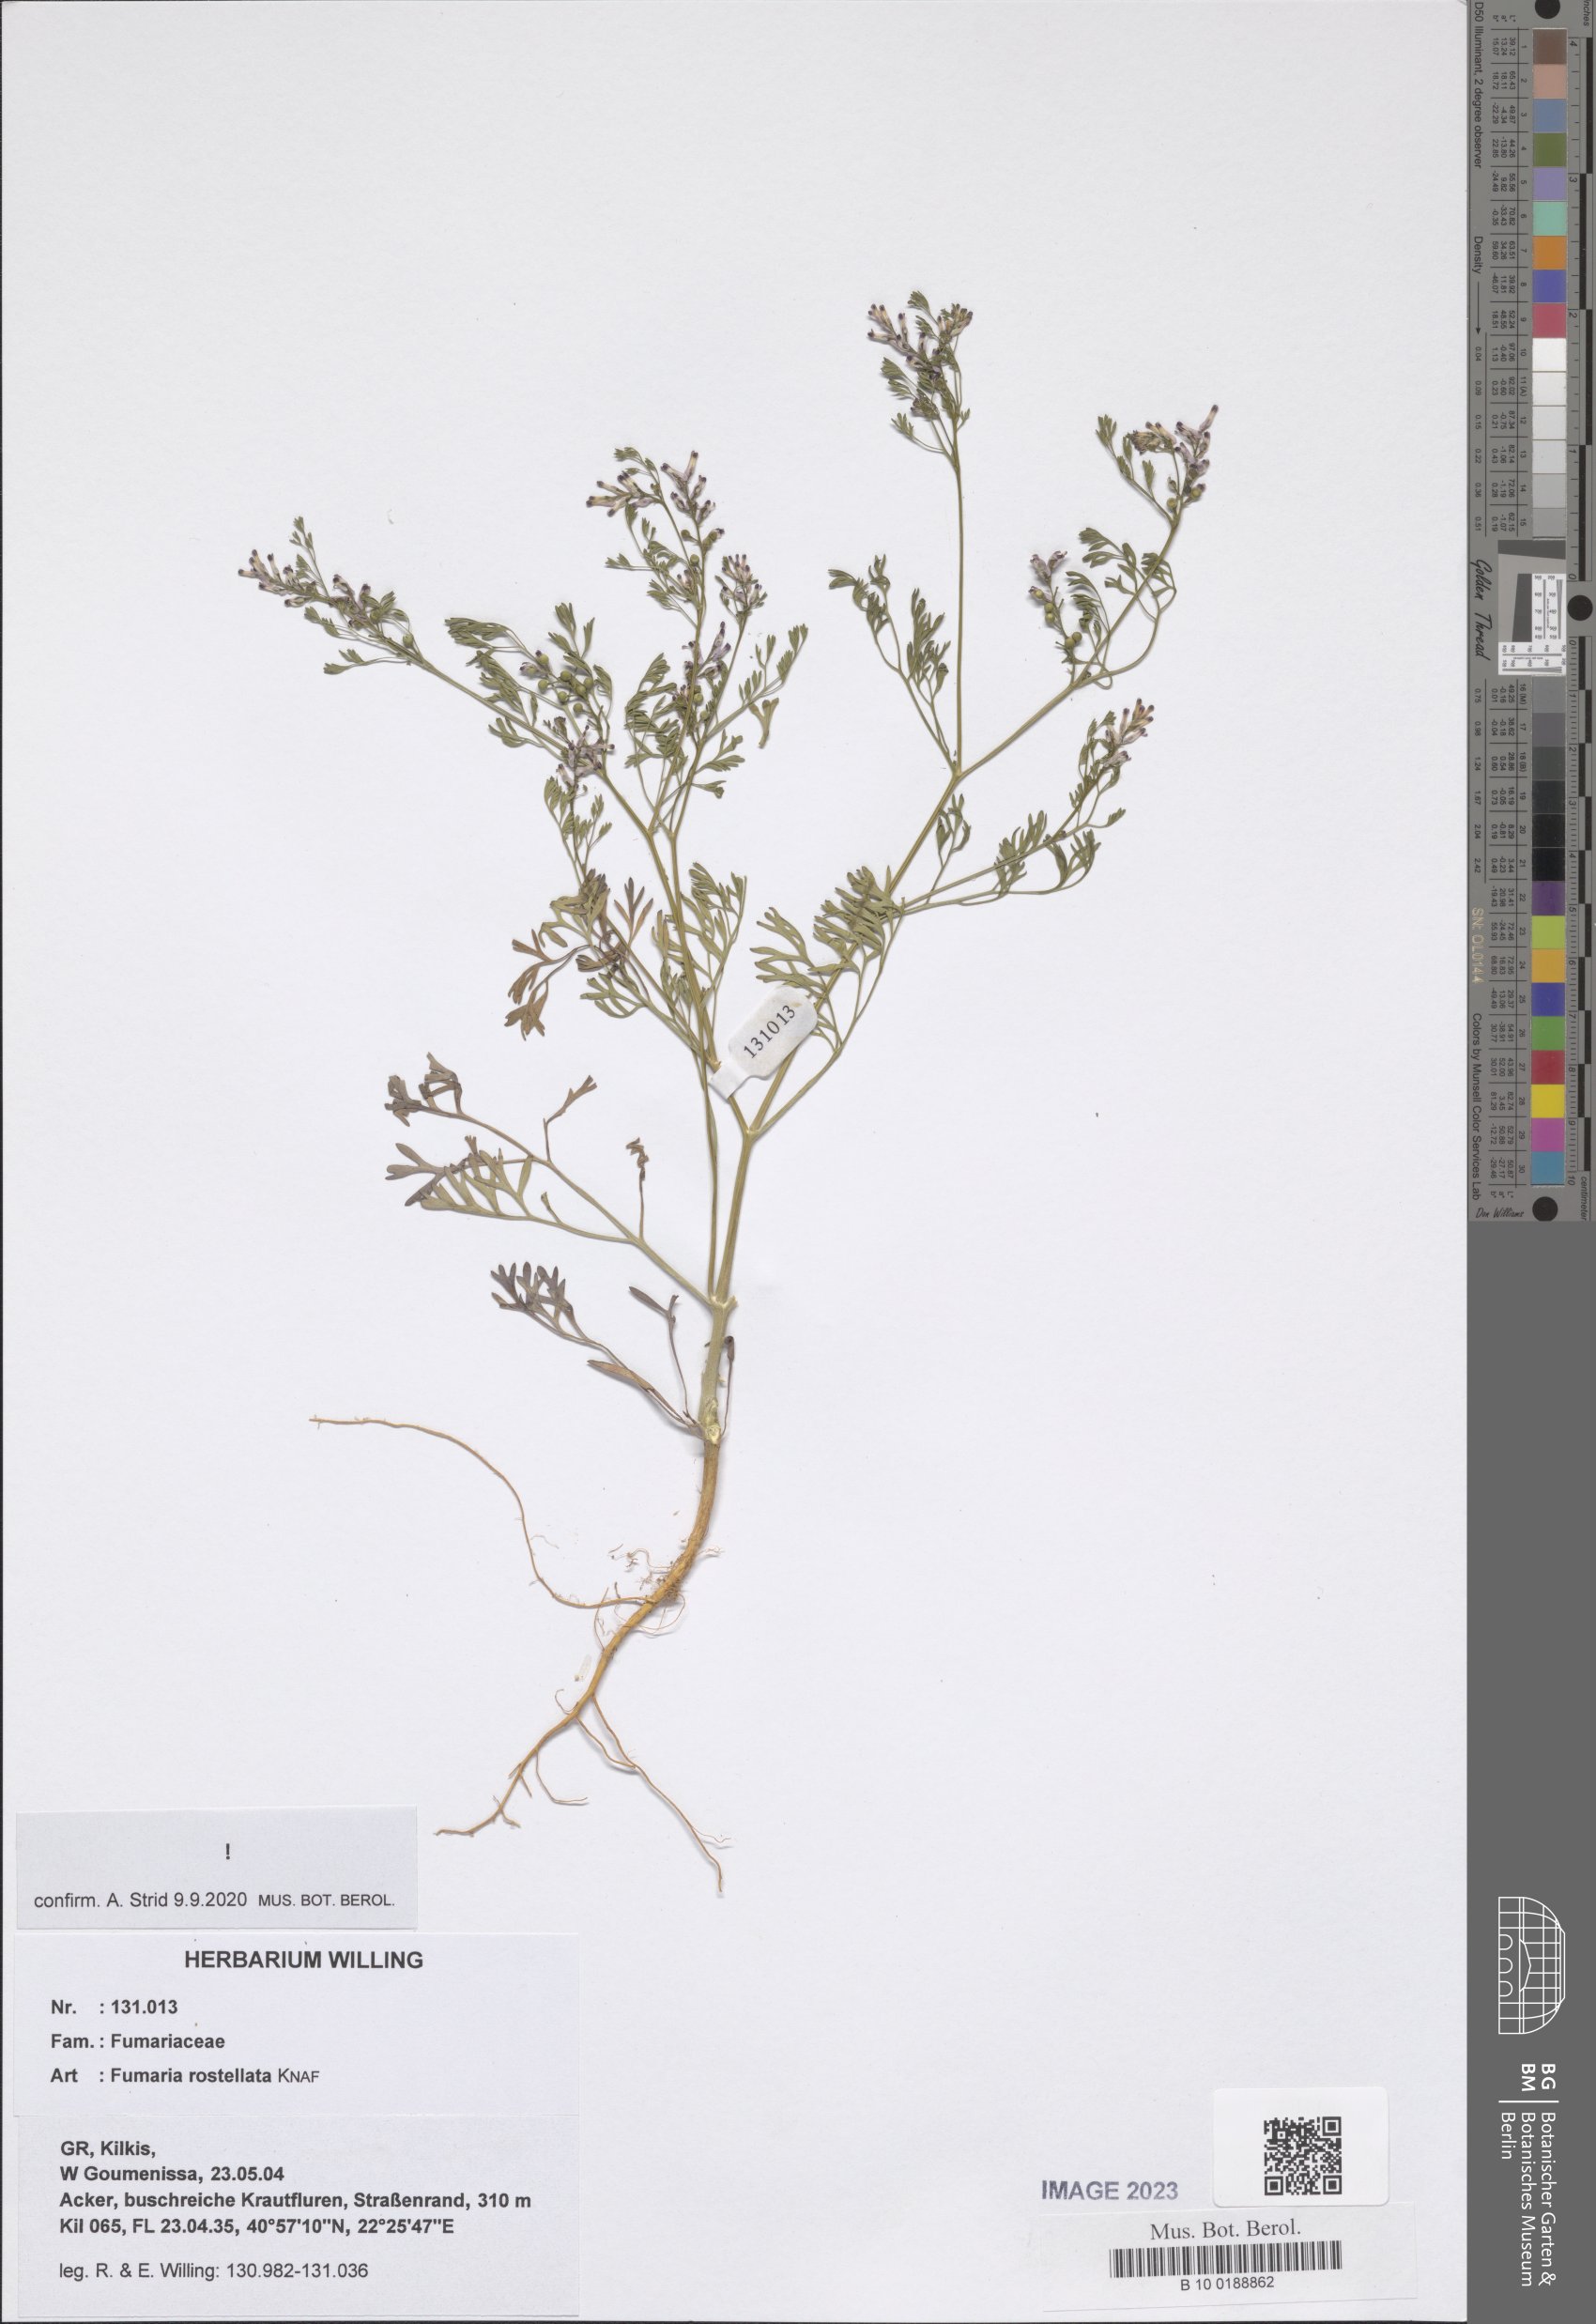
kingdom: Plantae
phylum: Tracheophyta
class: Magnoliopsida
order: Ranunculales
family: Papaveraceae
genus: Fumaria
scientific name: Fumaria rostellata
